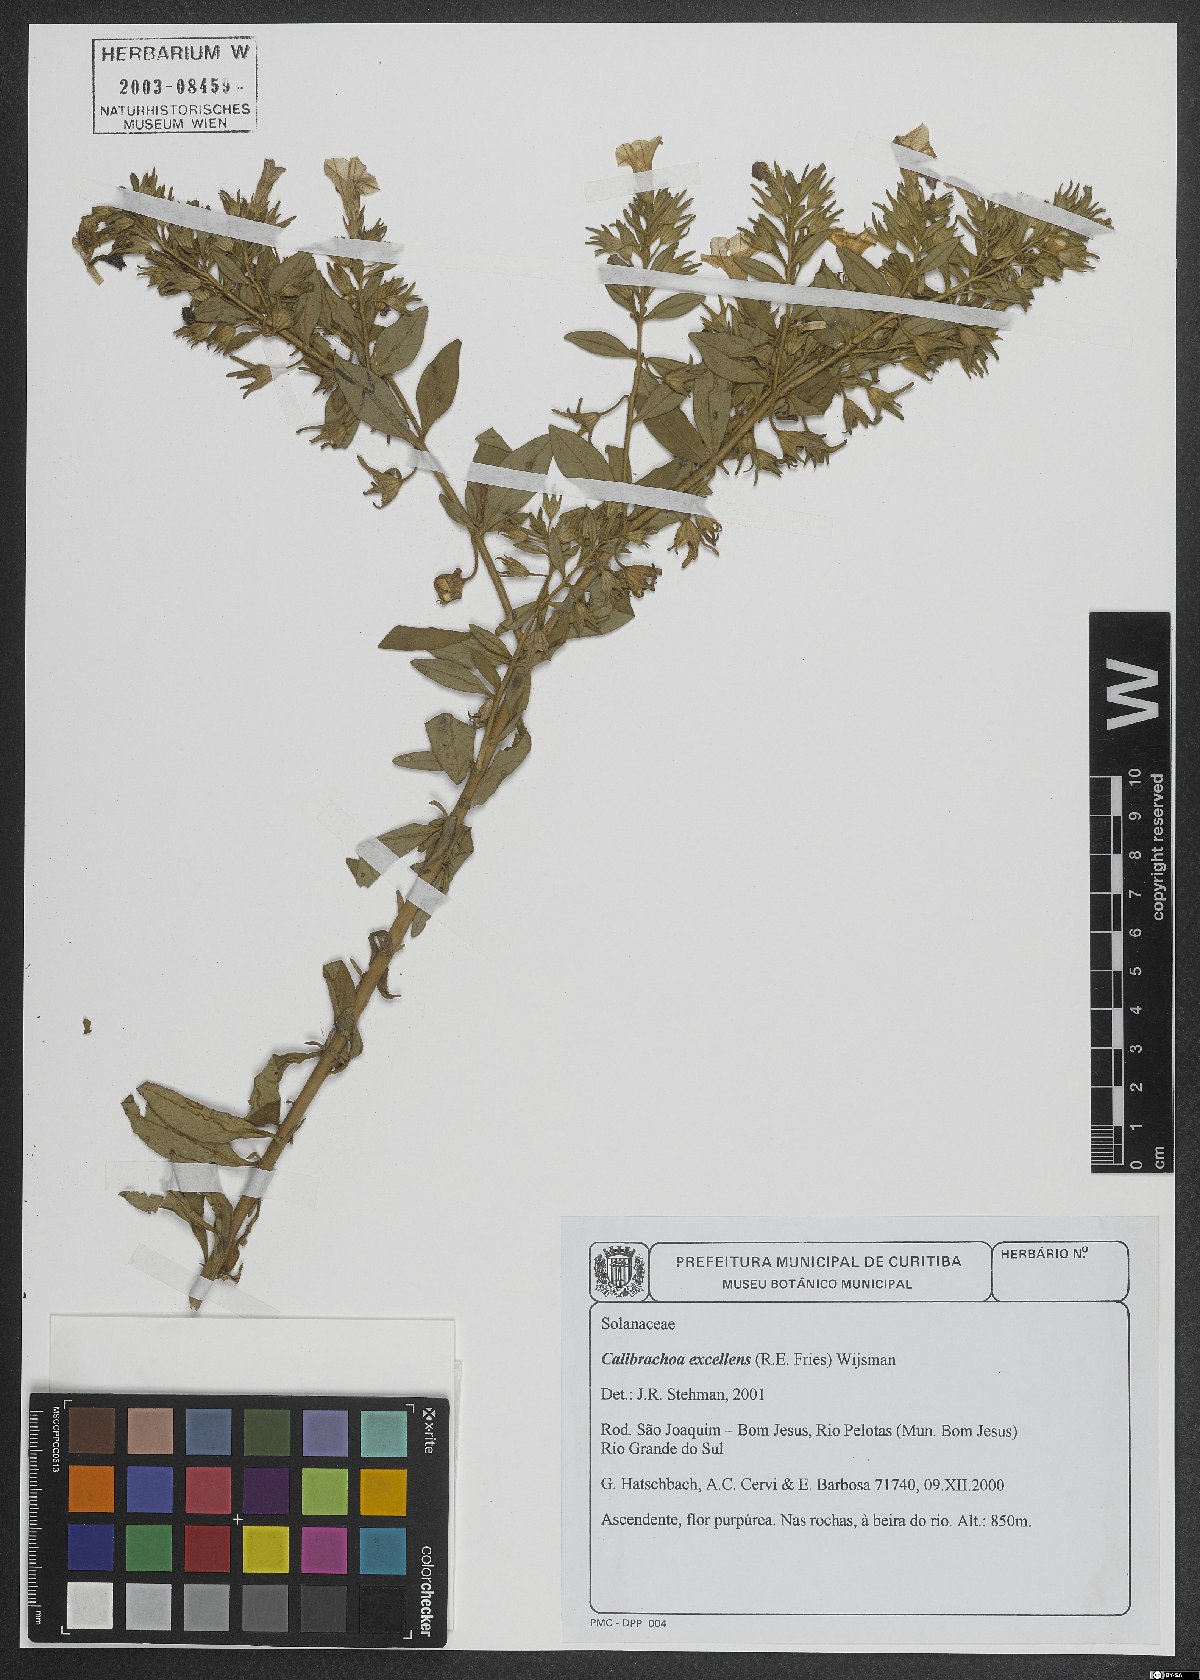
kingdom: Plantae
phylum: Tracheophyta
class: Magnoliopsida
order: Solanales
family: Solanaceae
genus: Calibrachoa
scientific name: Calibrachoa excellens
